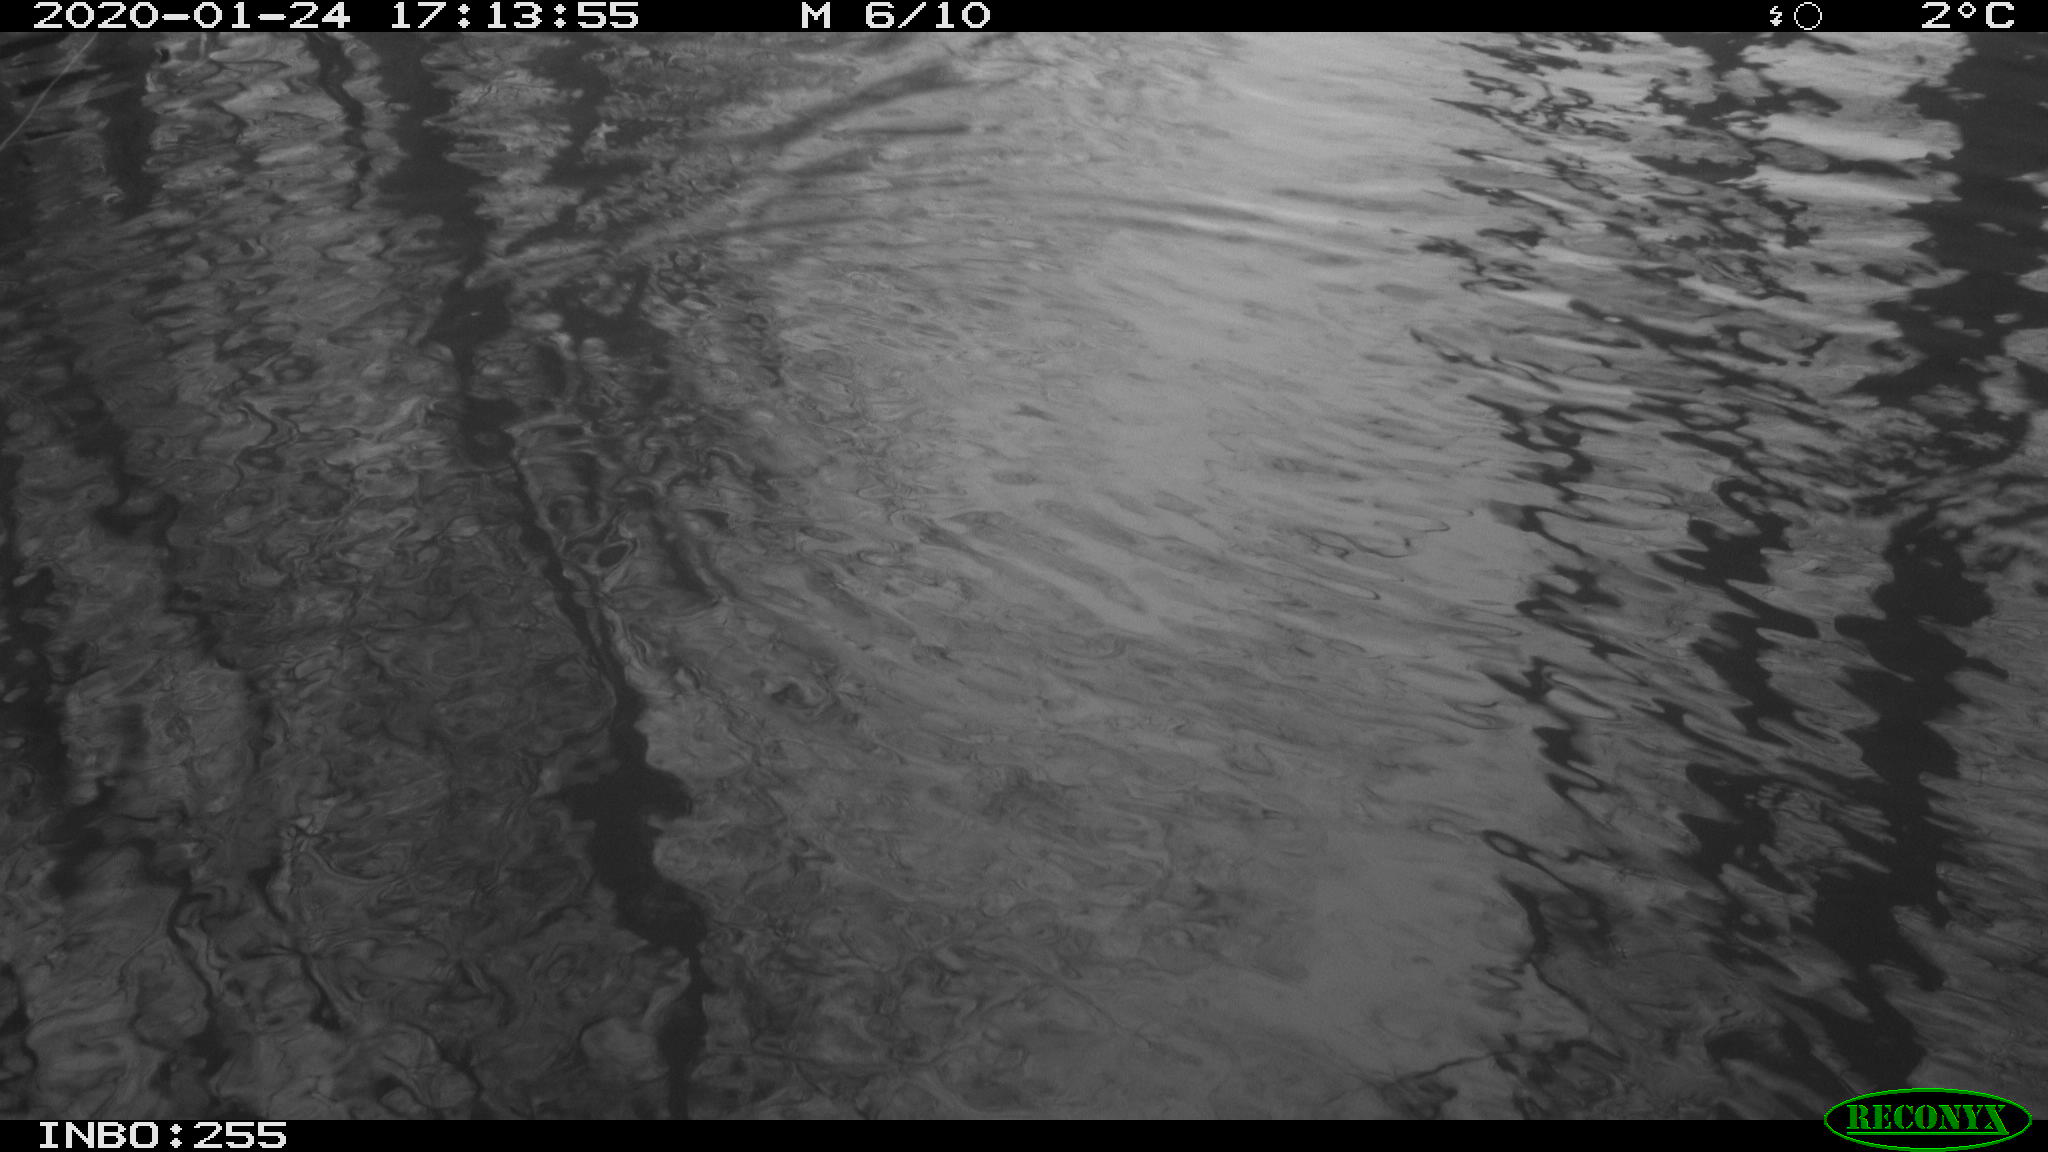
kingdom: Animalia
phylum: Chordata
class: Aves
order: Anseriformes
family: Anatidae
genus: Anas
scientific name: Anas platyrhynchos
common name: Mallard
